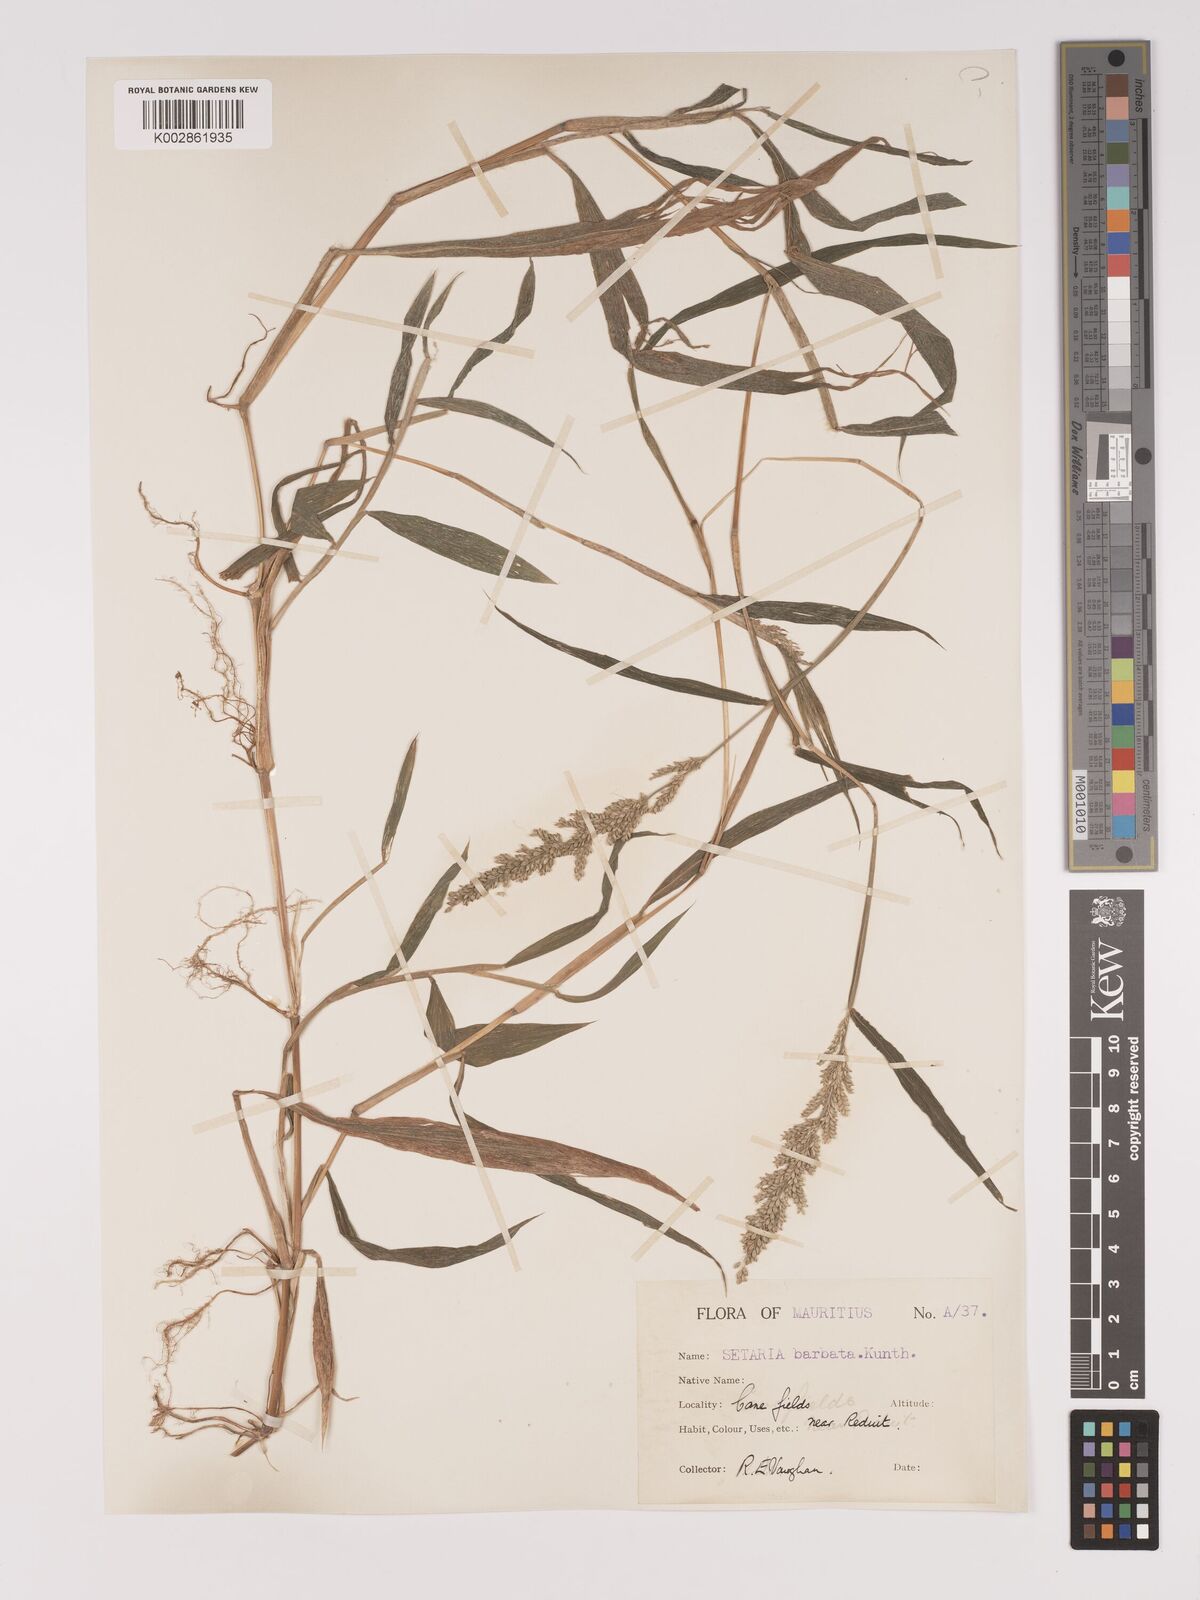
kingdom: Plantae
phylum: Tracheophyta
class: Liliopsida
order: Poales
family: Poaceae
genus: Setaria
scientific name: Setaria barbata
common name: East indian bristlegrass
